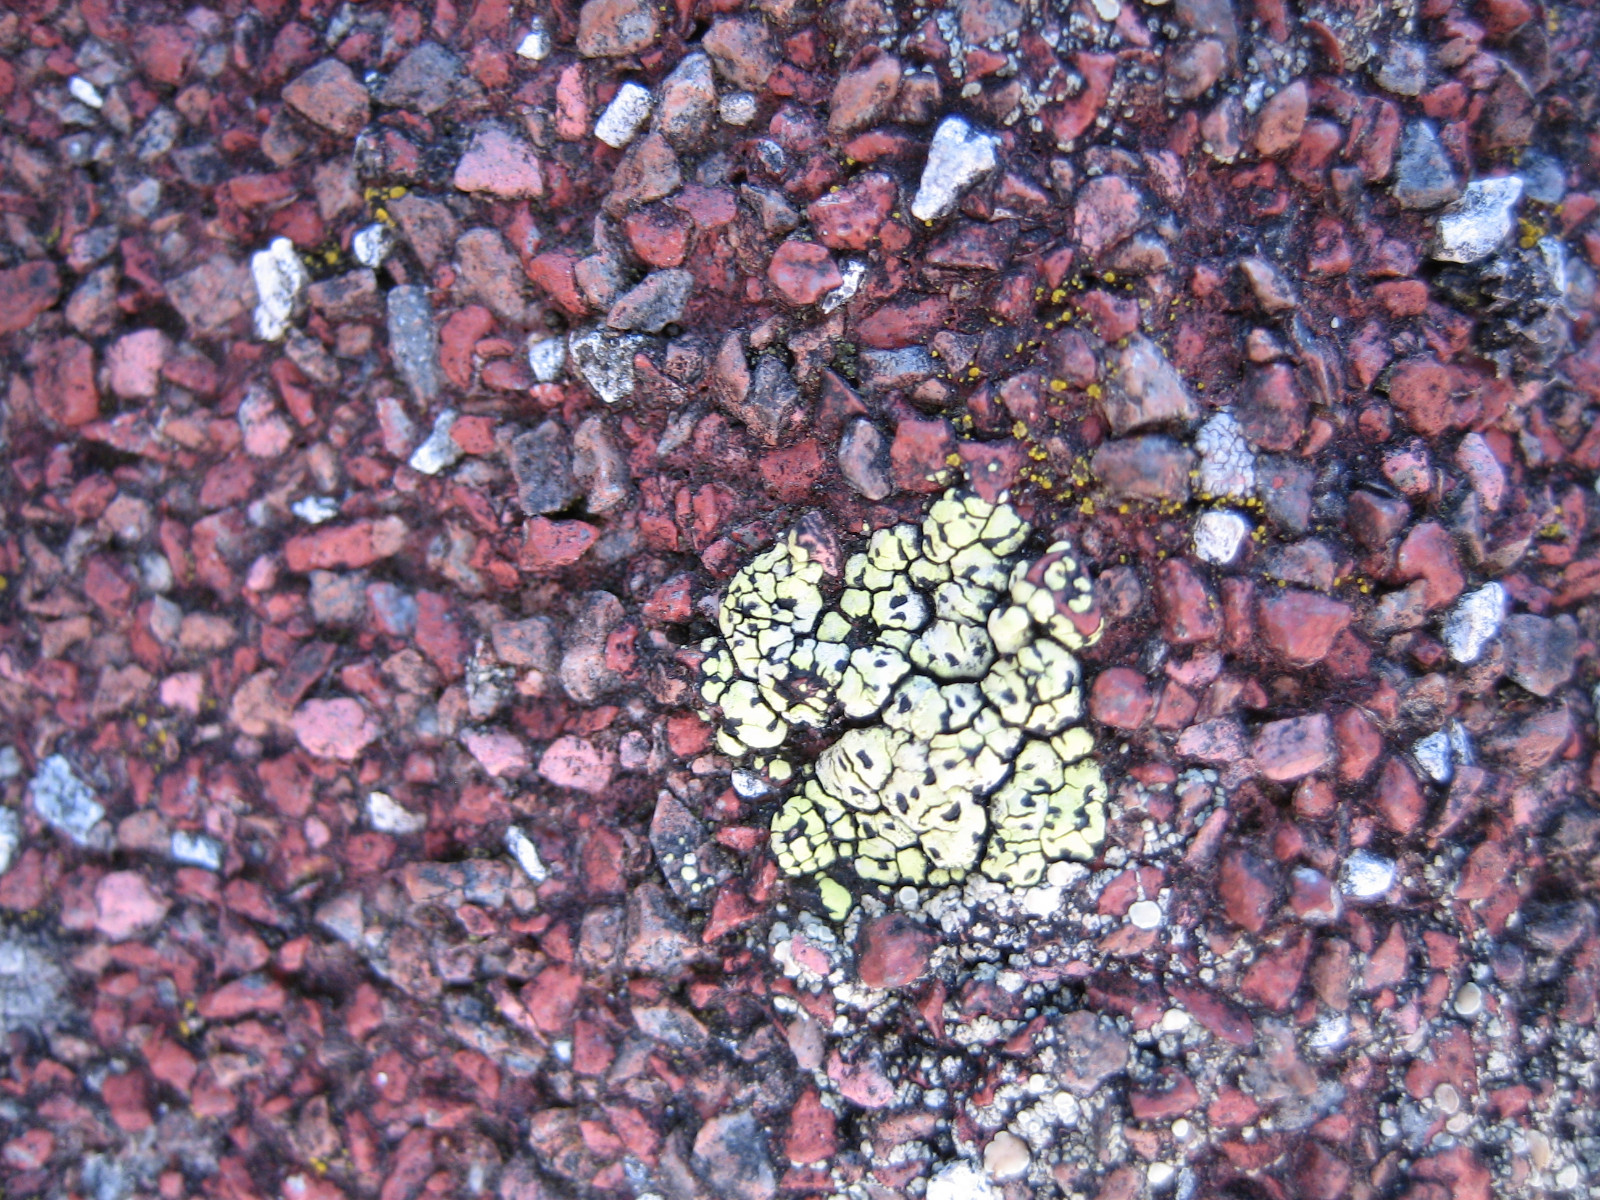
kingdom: Fungi
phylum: Ascomycota
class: Lecanoromycetes
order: Rhizocarpales
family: Rhizocarpaceae
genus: Rhizocarpon
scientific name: Rhizocarpon lecanorinum
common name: krave-landkortlav
